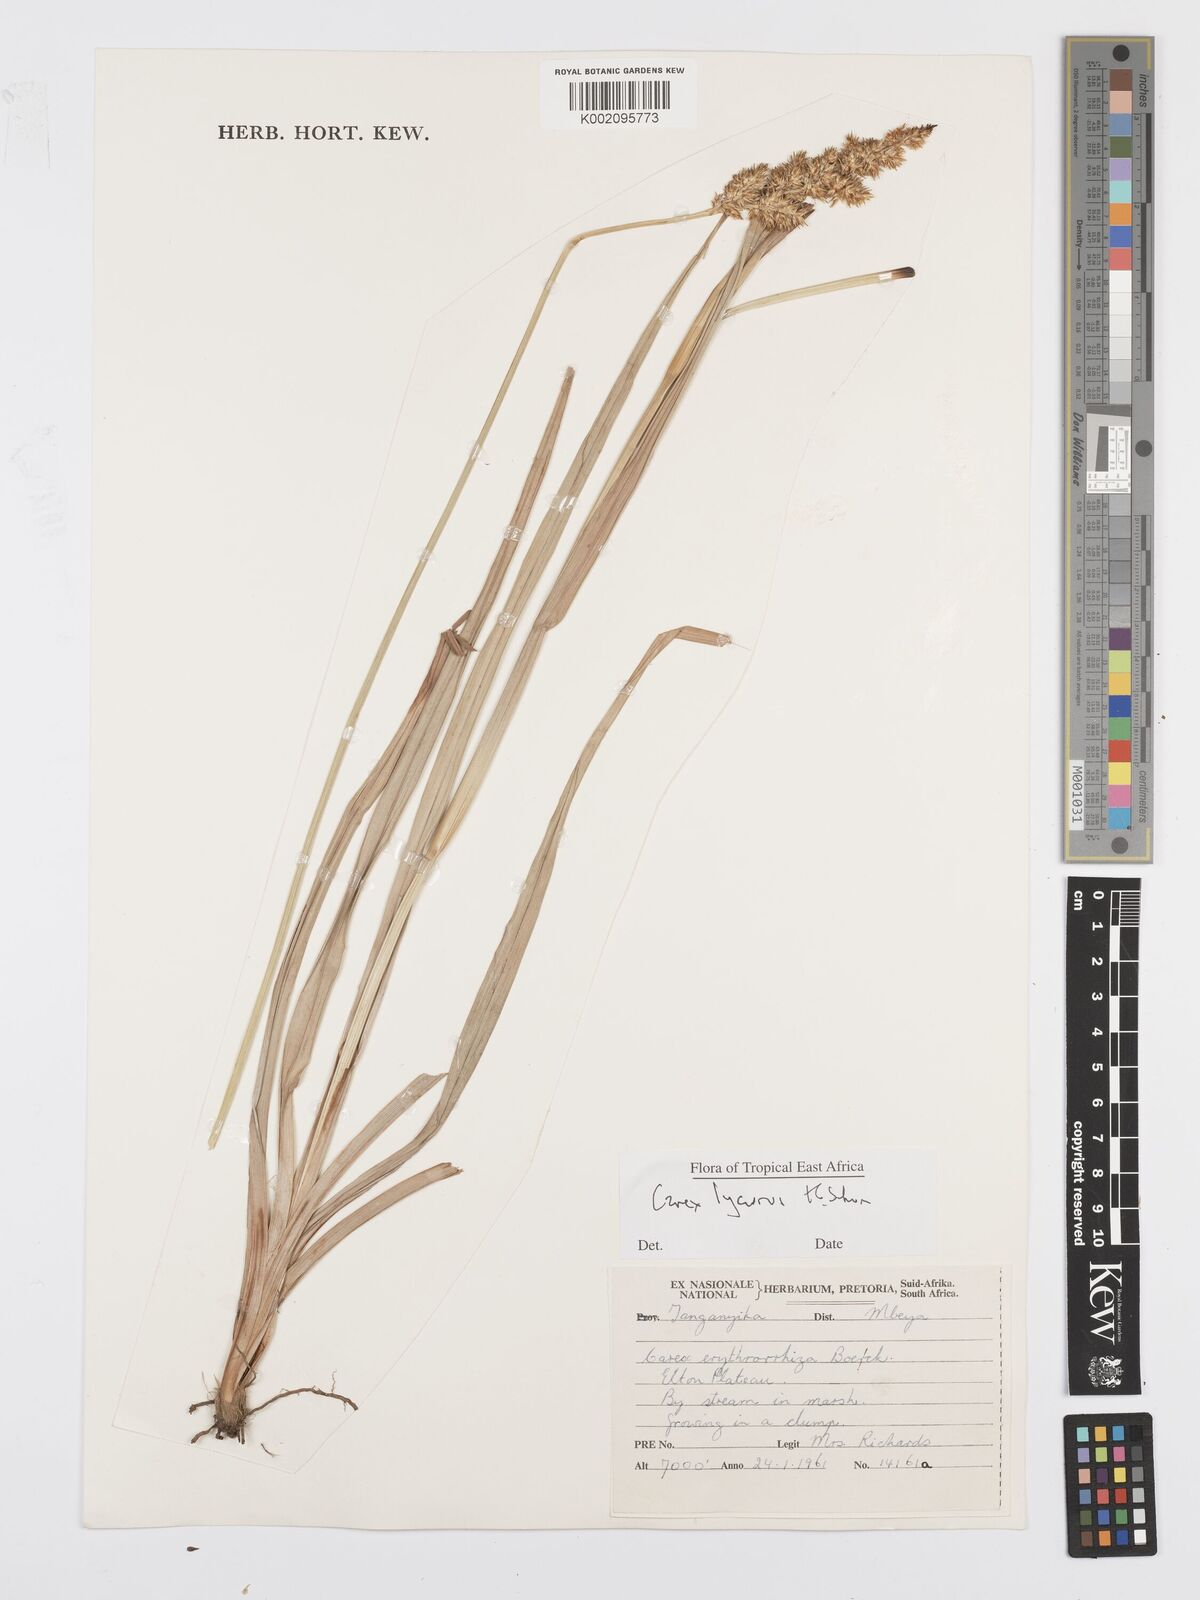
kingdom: Plantae
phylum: Tracheophyta
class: Liliopsida
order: Poales
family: Cyperaceae
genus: Carex
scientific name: Carex lycurus
